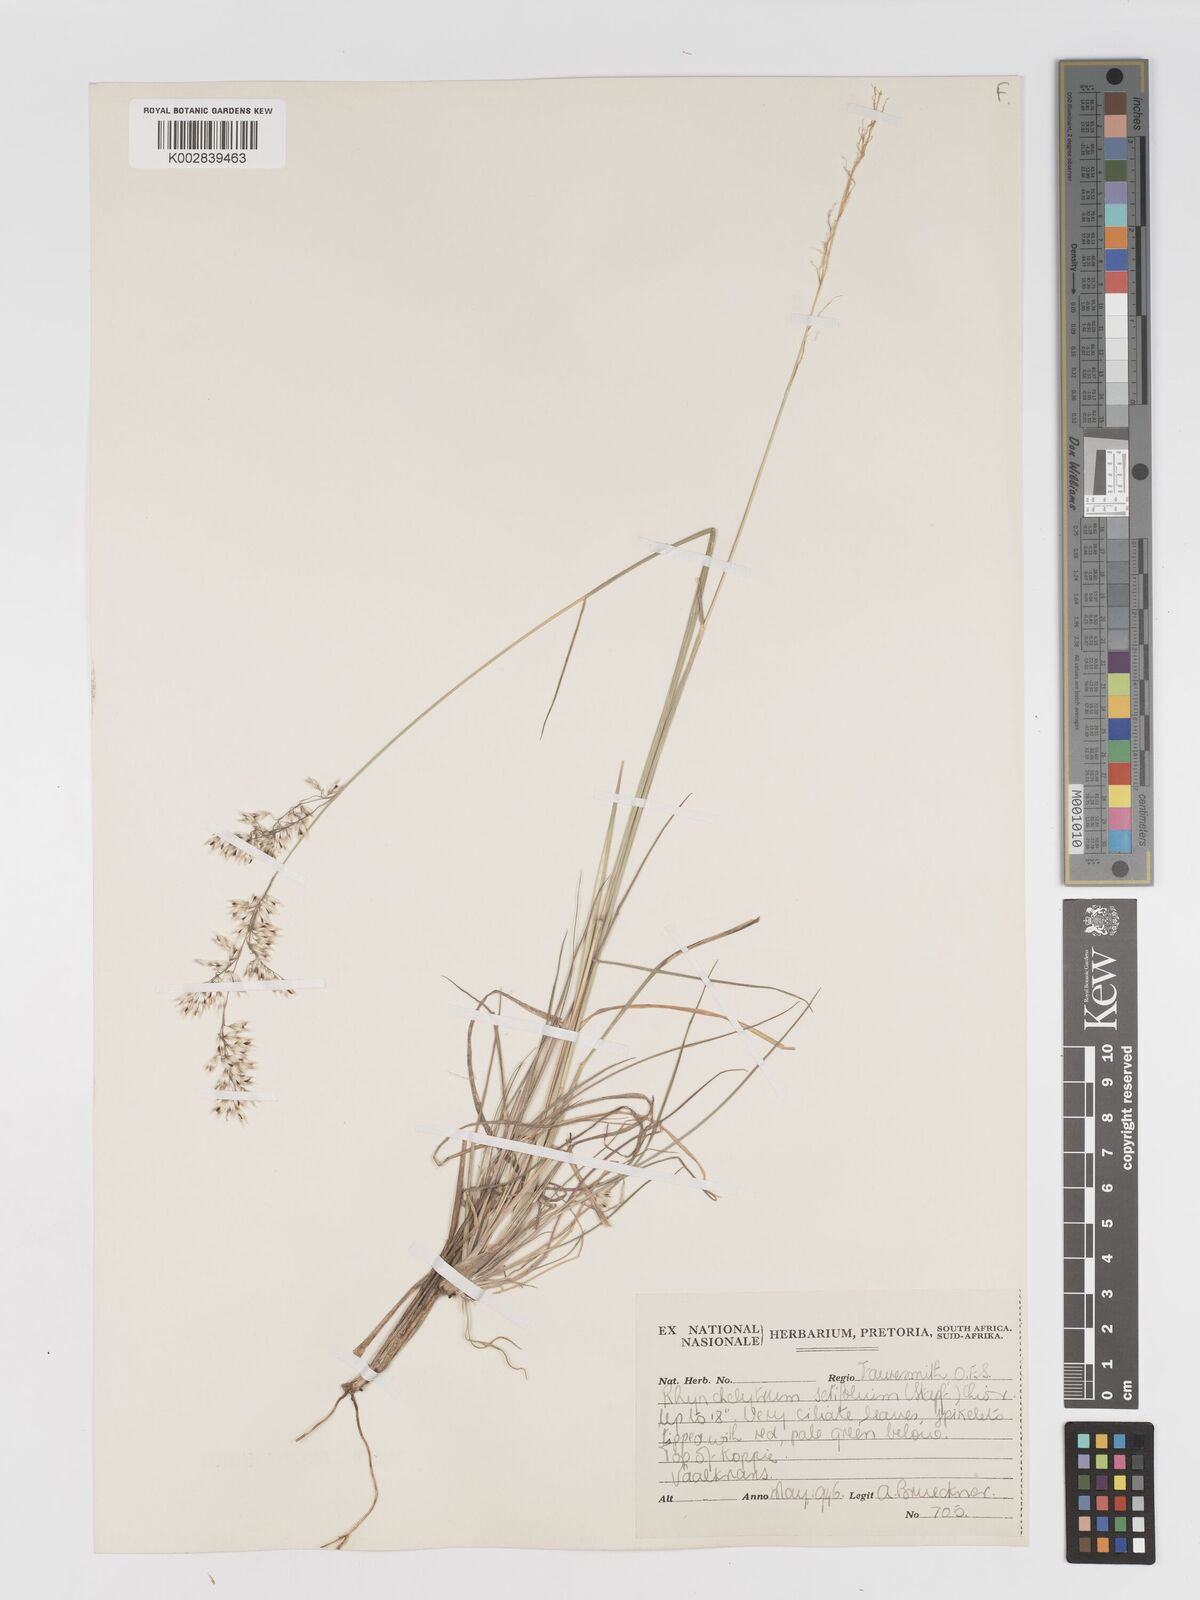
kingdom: Plantae
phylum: Tracheophyta
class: Liliopsida
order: Poales
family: Poaceae
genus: Melinis
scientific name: Melinis nerviglumis
